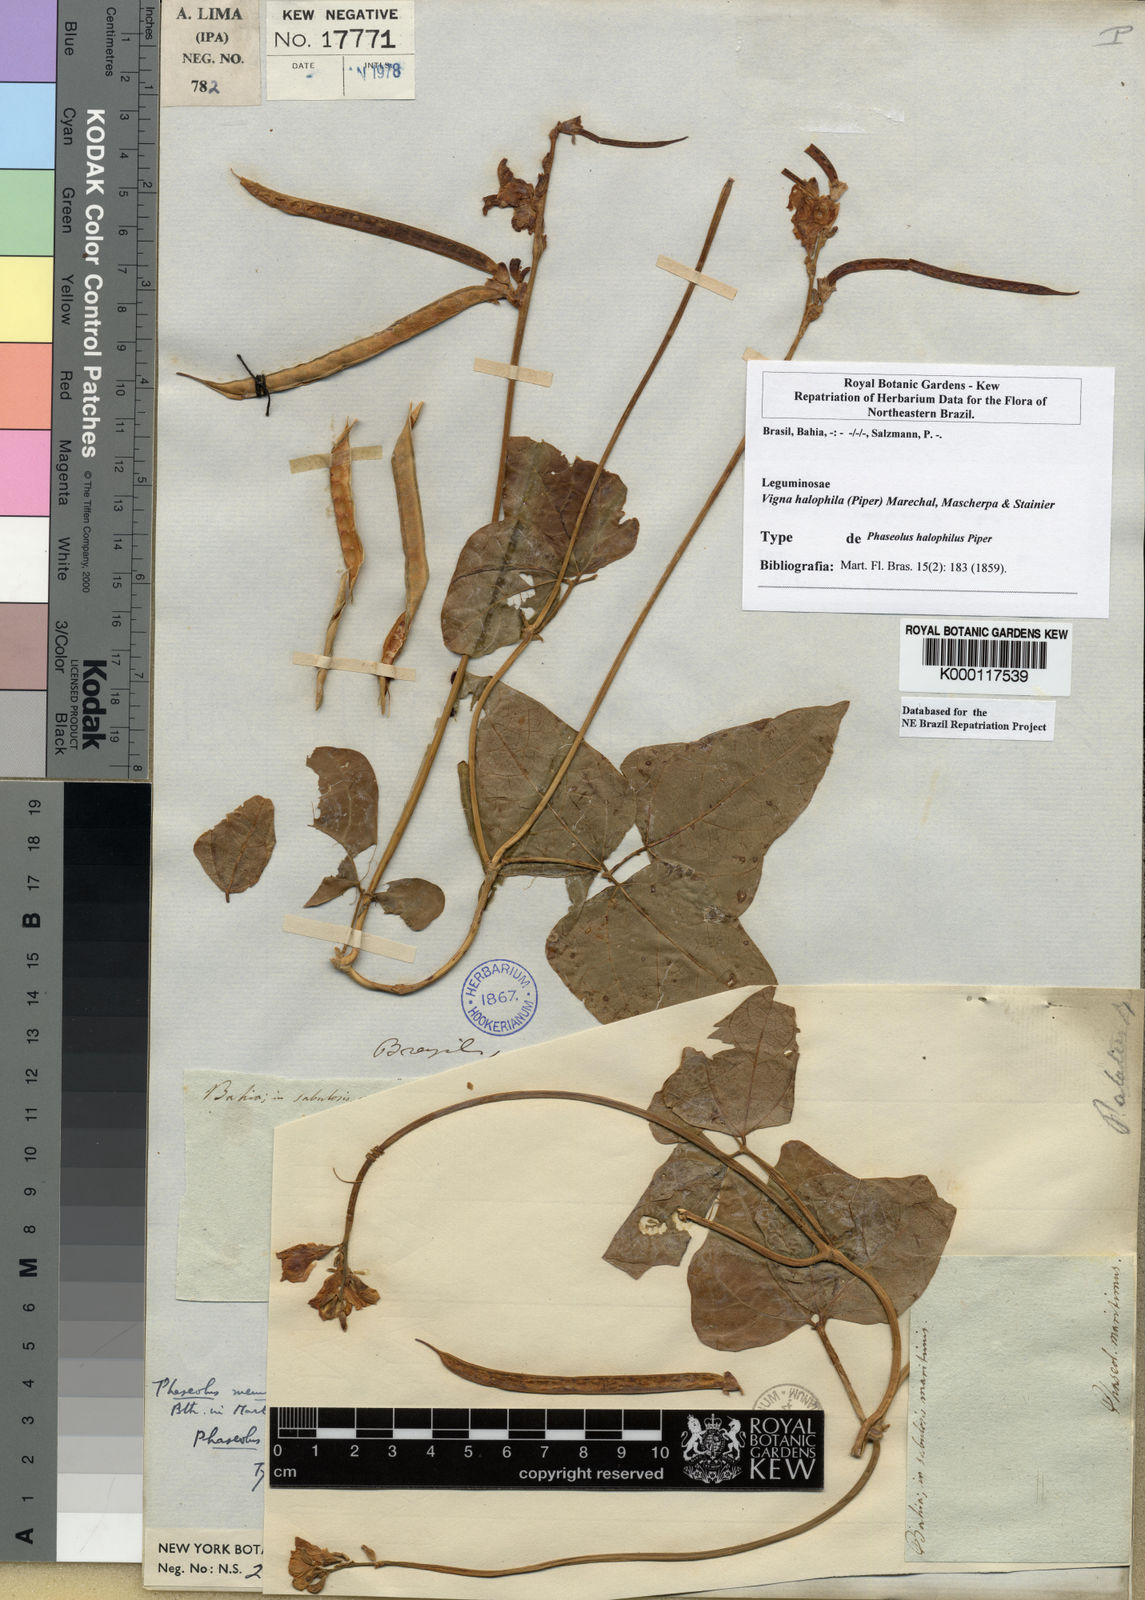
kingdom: Plantae
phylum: Tracheophyta
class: Magnoliopsida
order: Fabales
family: Fabaceae
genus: Vigna
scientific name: Vigna
